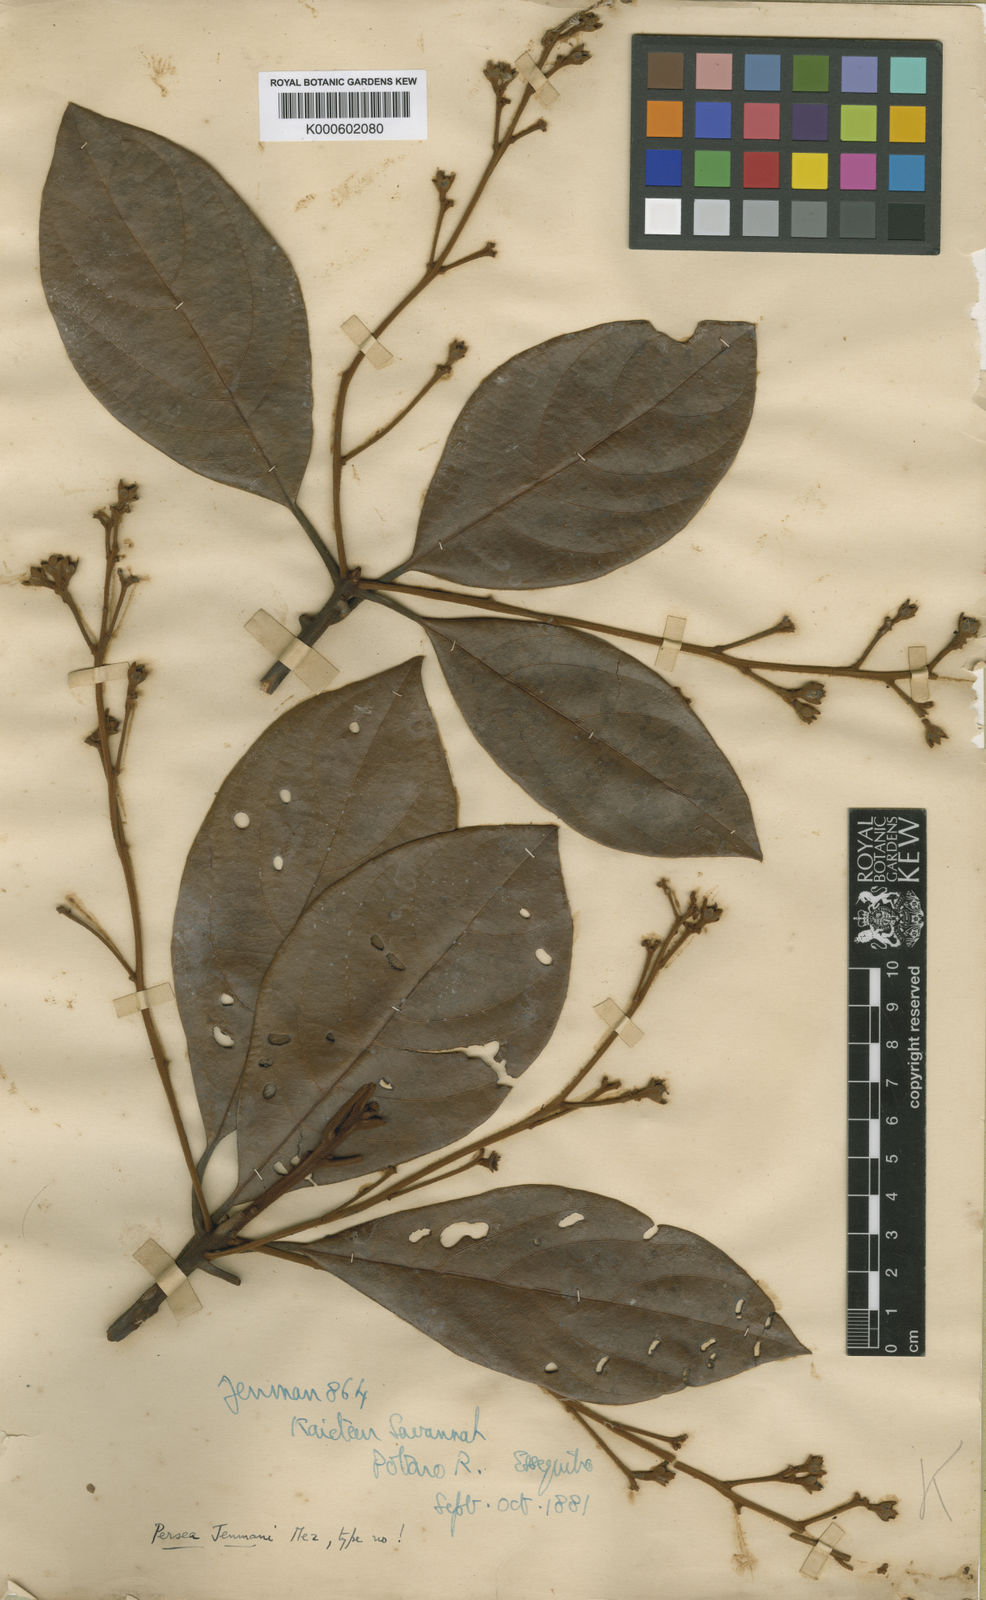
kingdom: Plantae
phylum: Tracheophyta
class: Magnoliopsida
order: Laurales
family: Lauraceae
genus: Persea
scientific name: Persea jenmanii
